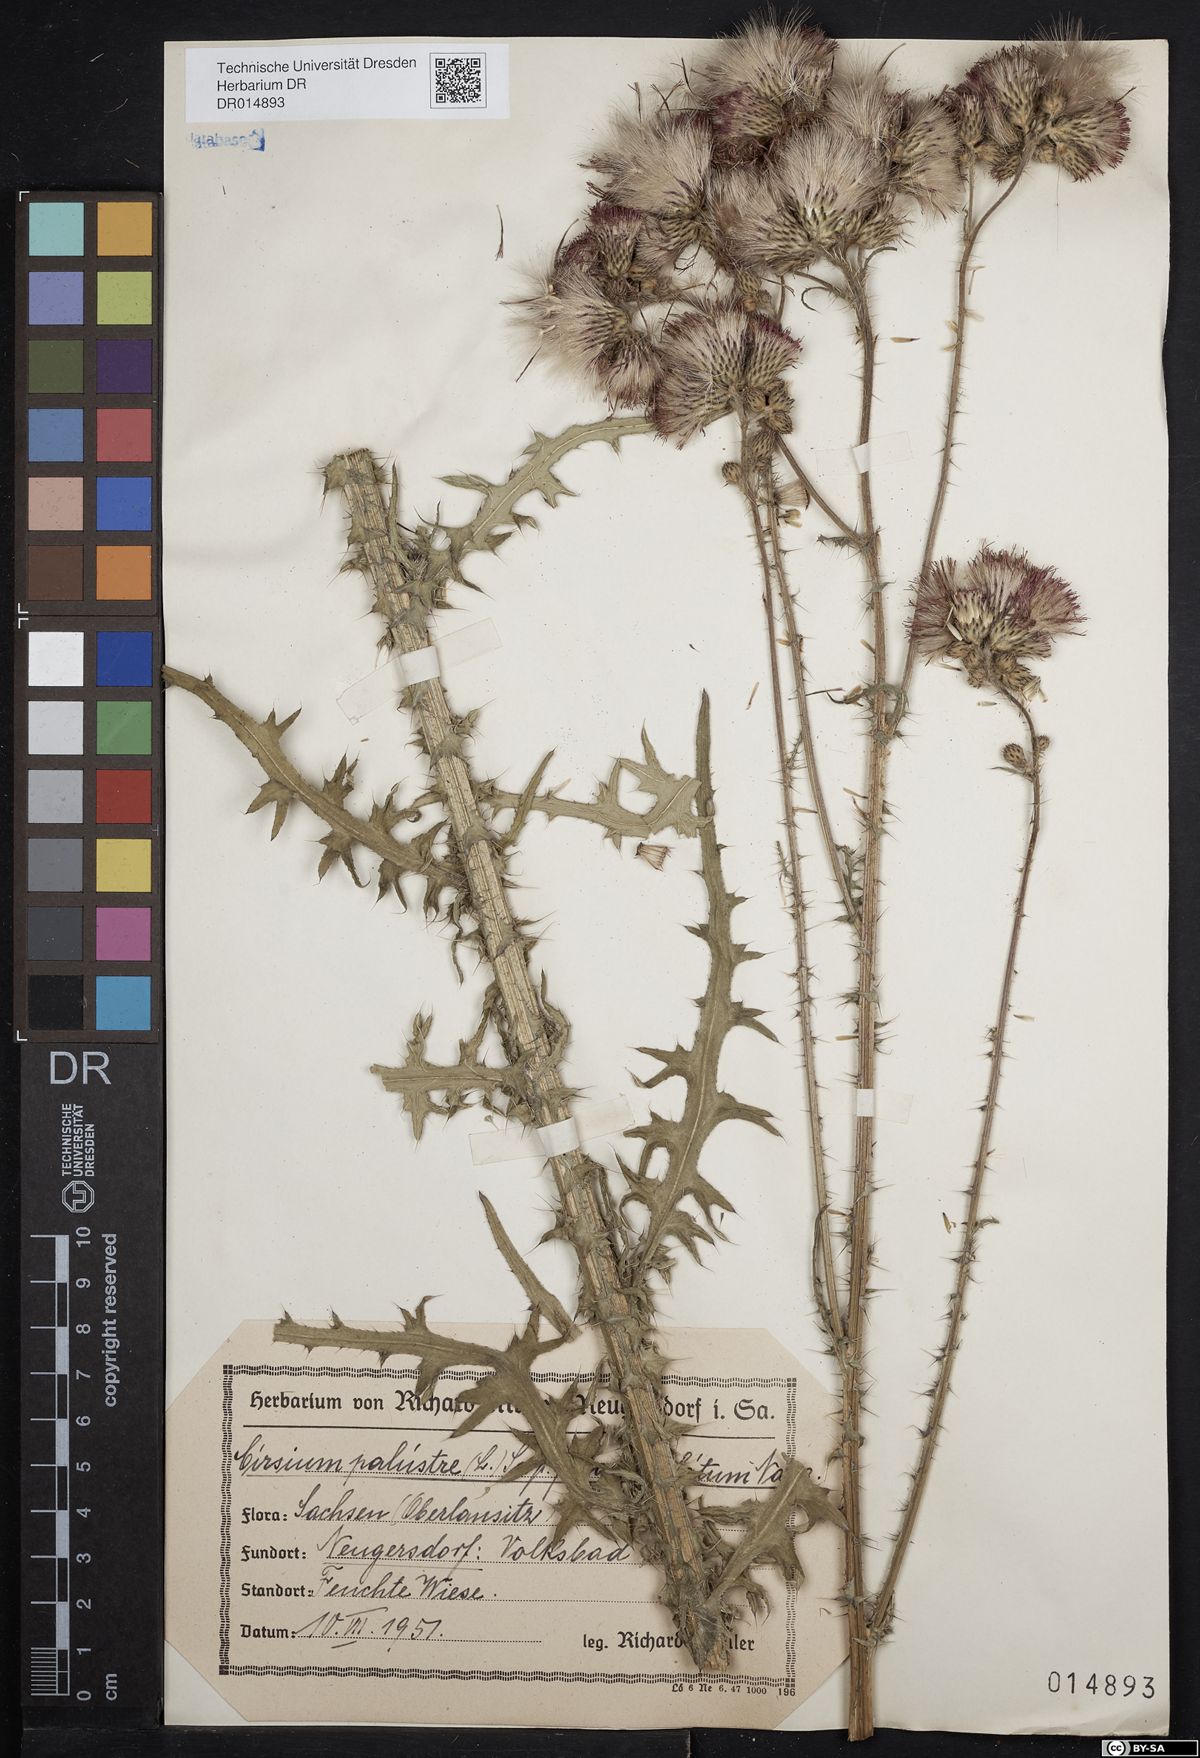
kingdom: Plantae
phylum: Tracheophyta
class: Magnoliopsida
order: Asterales
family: Asteraceae
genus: Cirsium
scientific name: Cirsium palustre
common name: Marsh thistle
